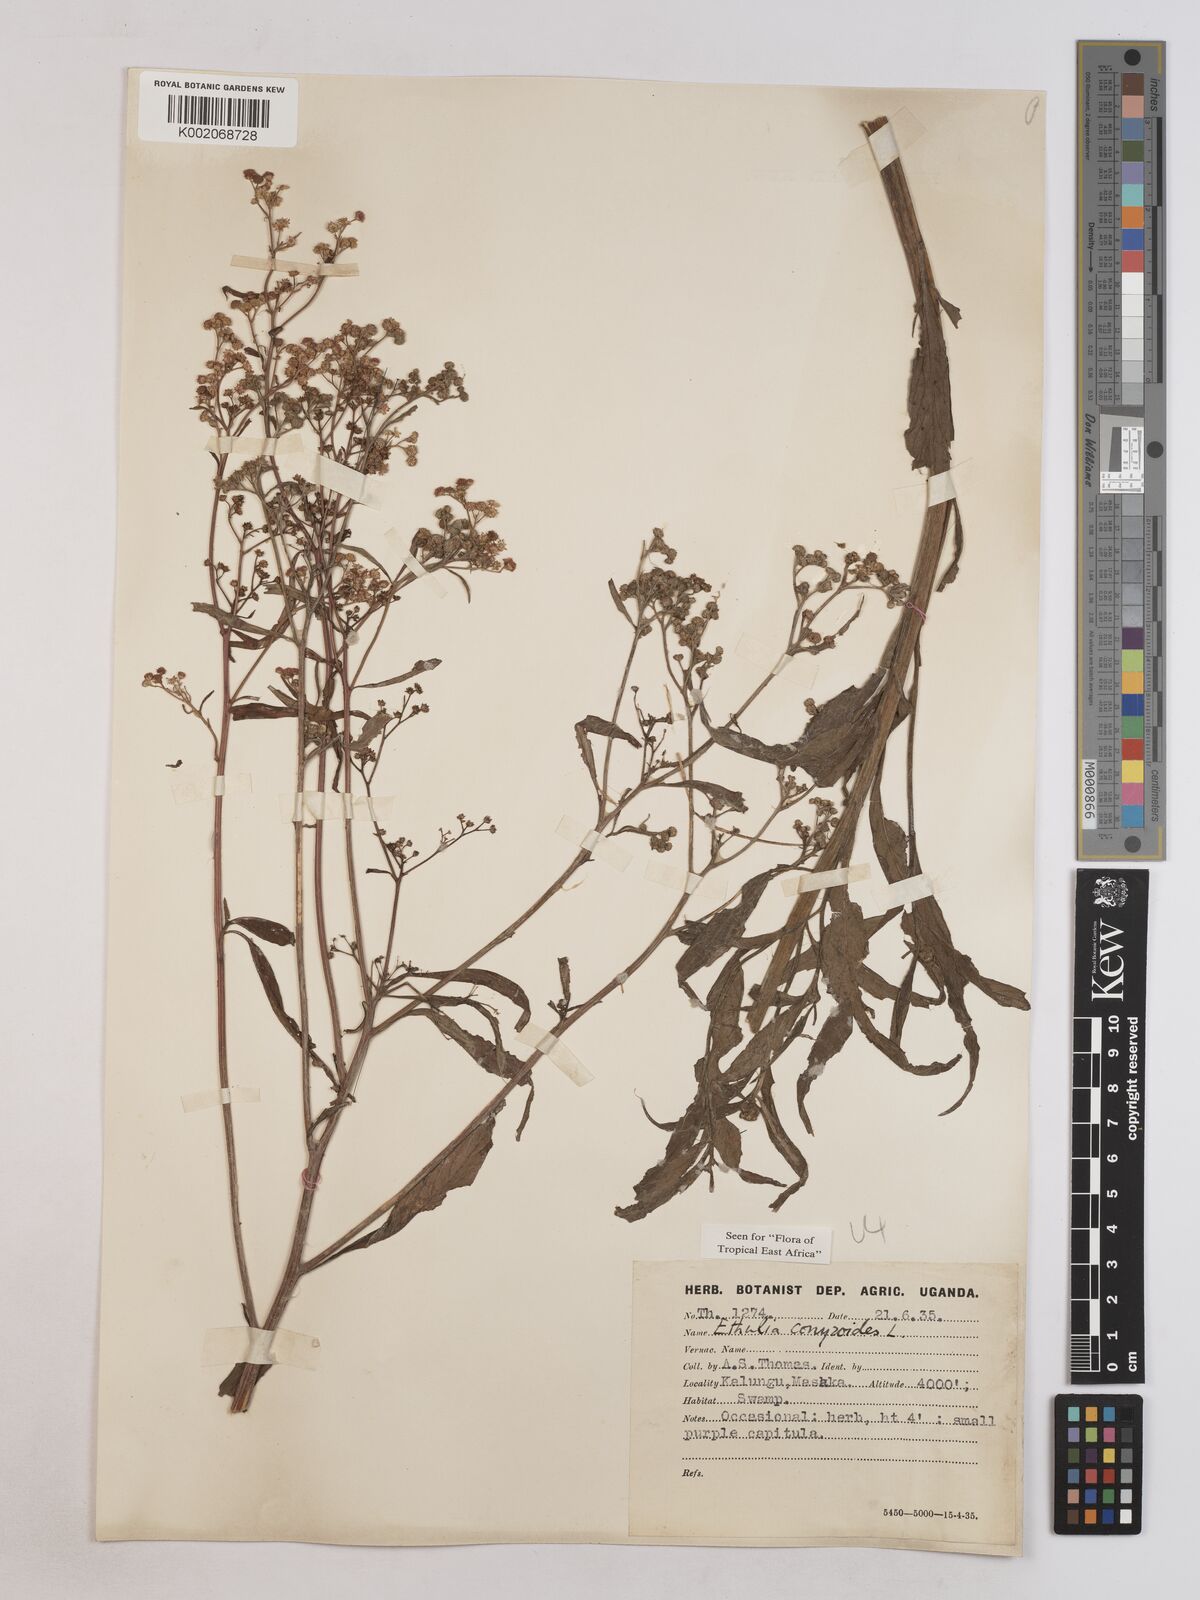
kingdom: Plantae
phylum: Tracheophyta
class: Magnoliopsida
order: Asterales
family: Asteraceae
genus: Ethulia
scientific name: Ethulia conyzoides
